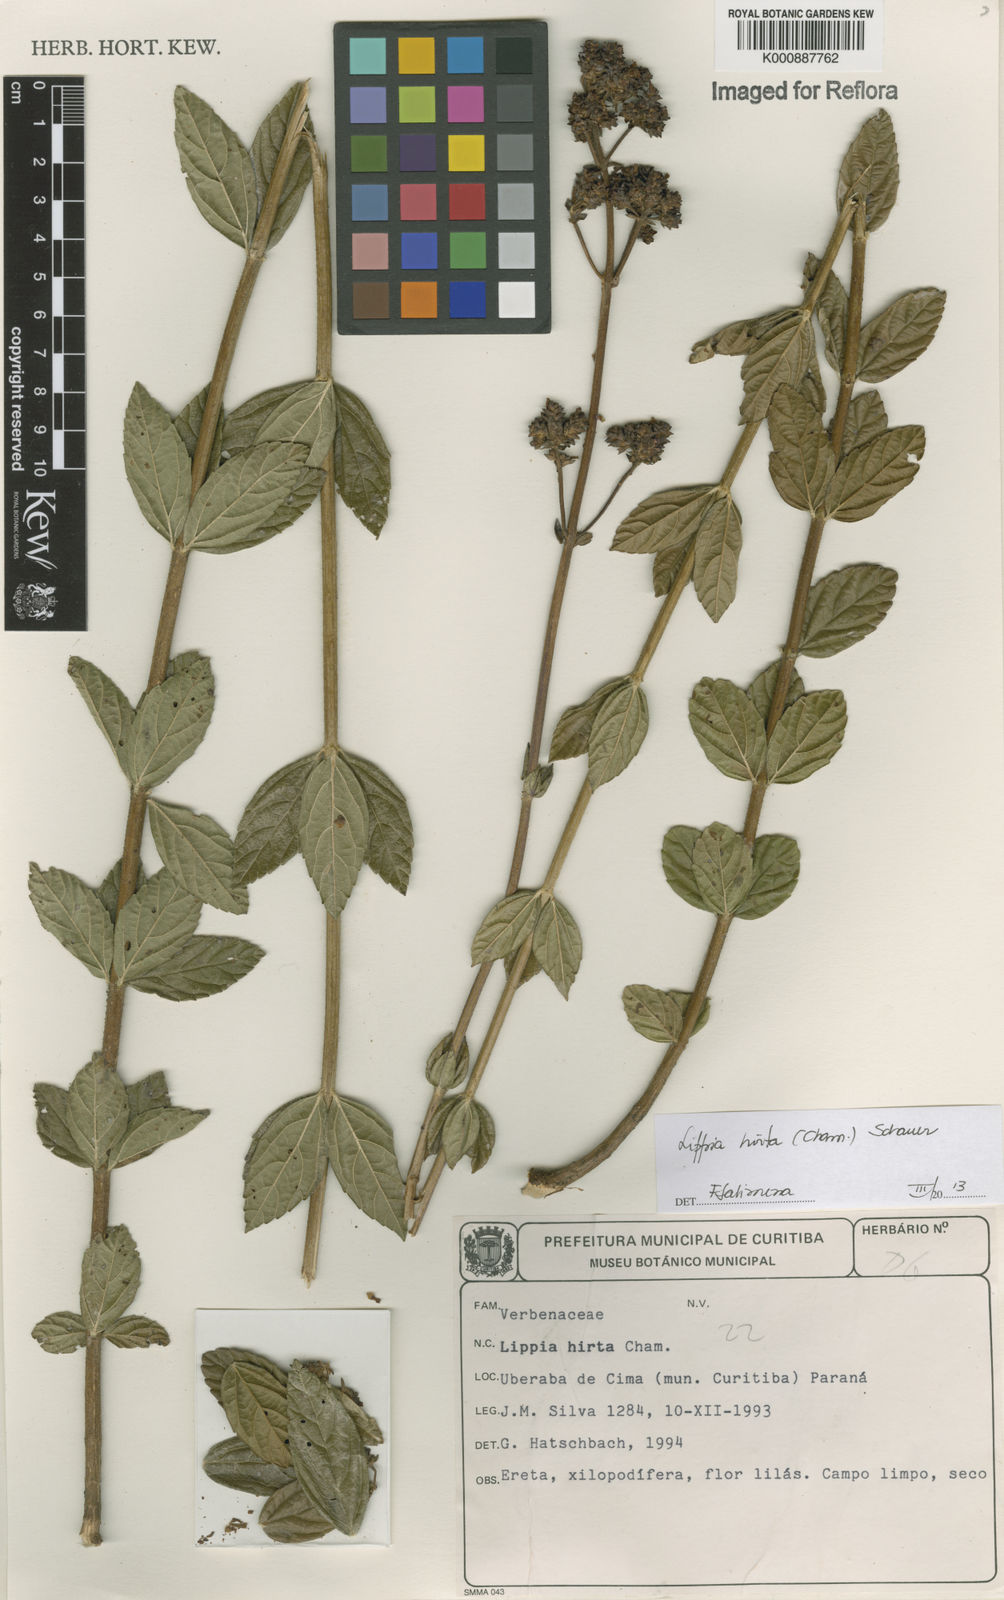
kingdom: Plantae
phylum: Tracheophyta
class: Magnoliopsida
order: Lamiales
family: Verbenaceae
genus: Lippia
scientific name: Lippia hirta
